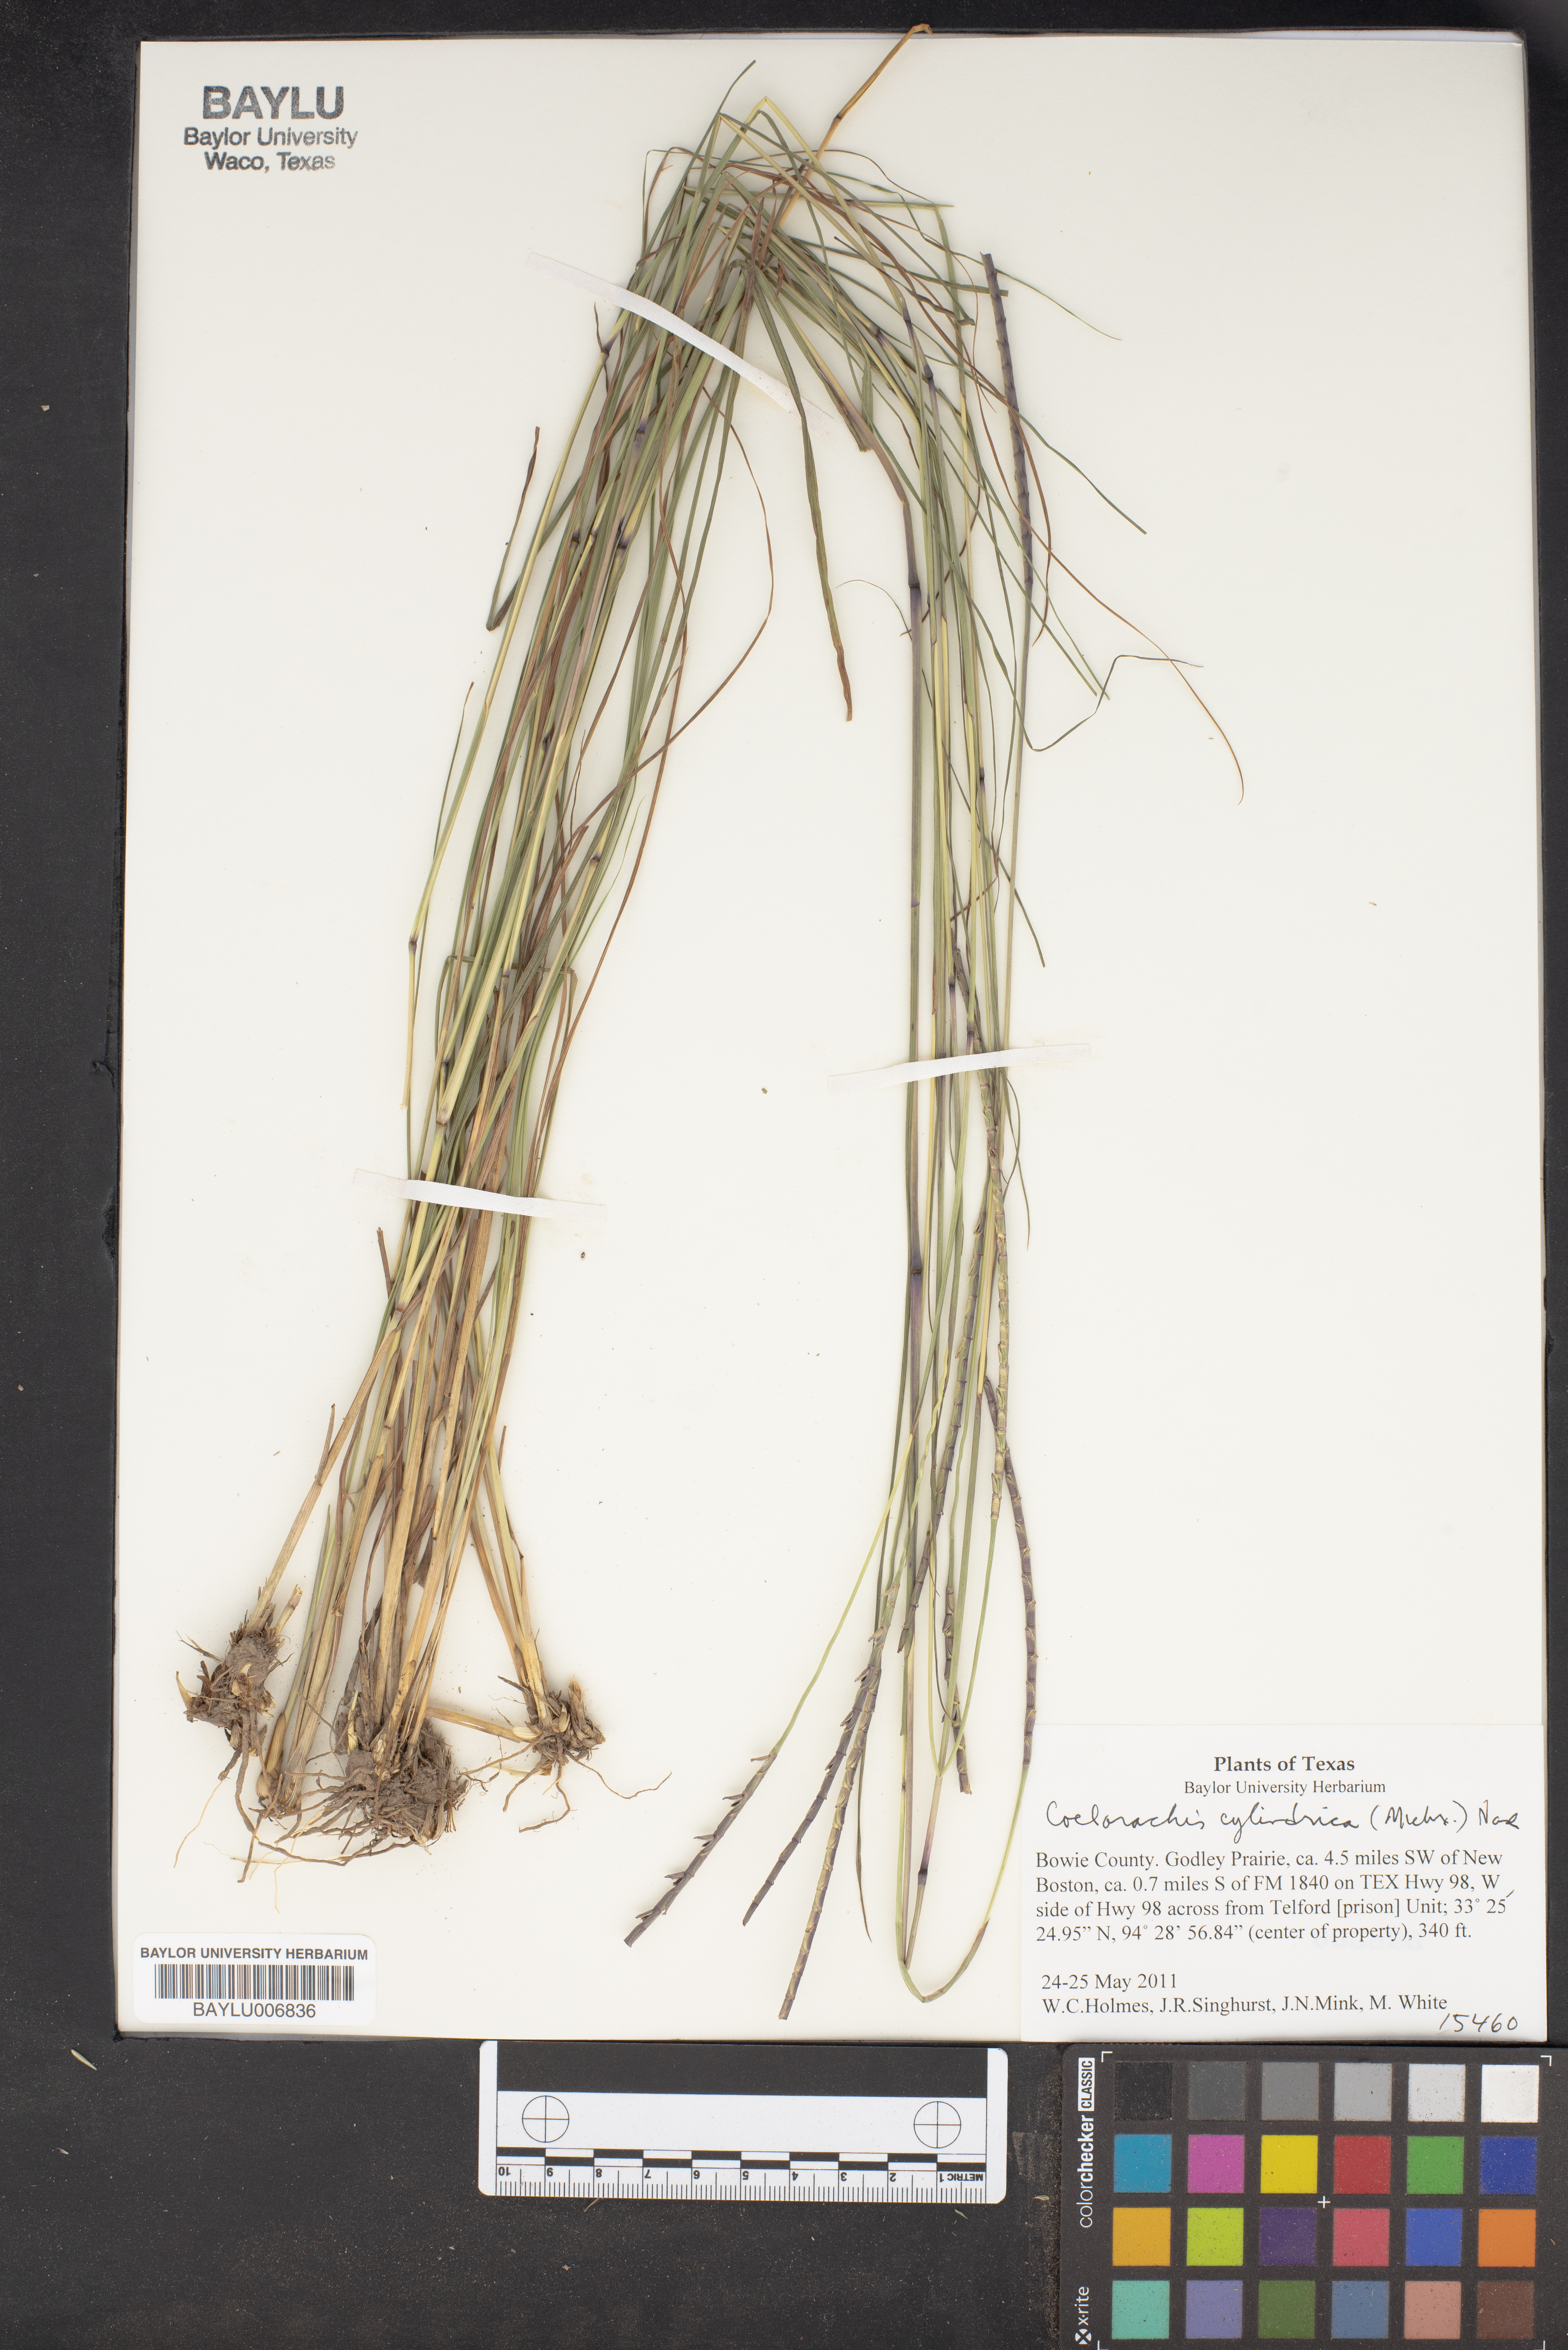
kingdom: Plantae
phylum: Tracheophyta
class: Liliopsida
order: Poales
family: Poaceae
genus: Rottboellia
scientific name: Rottboellia campestris
